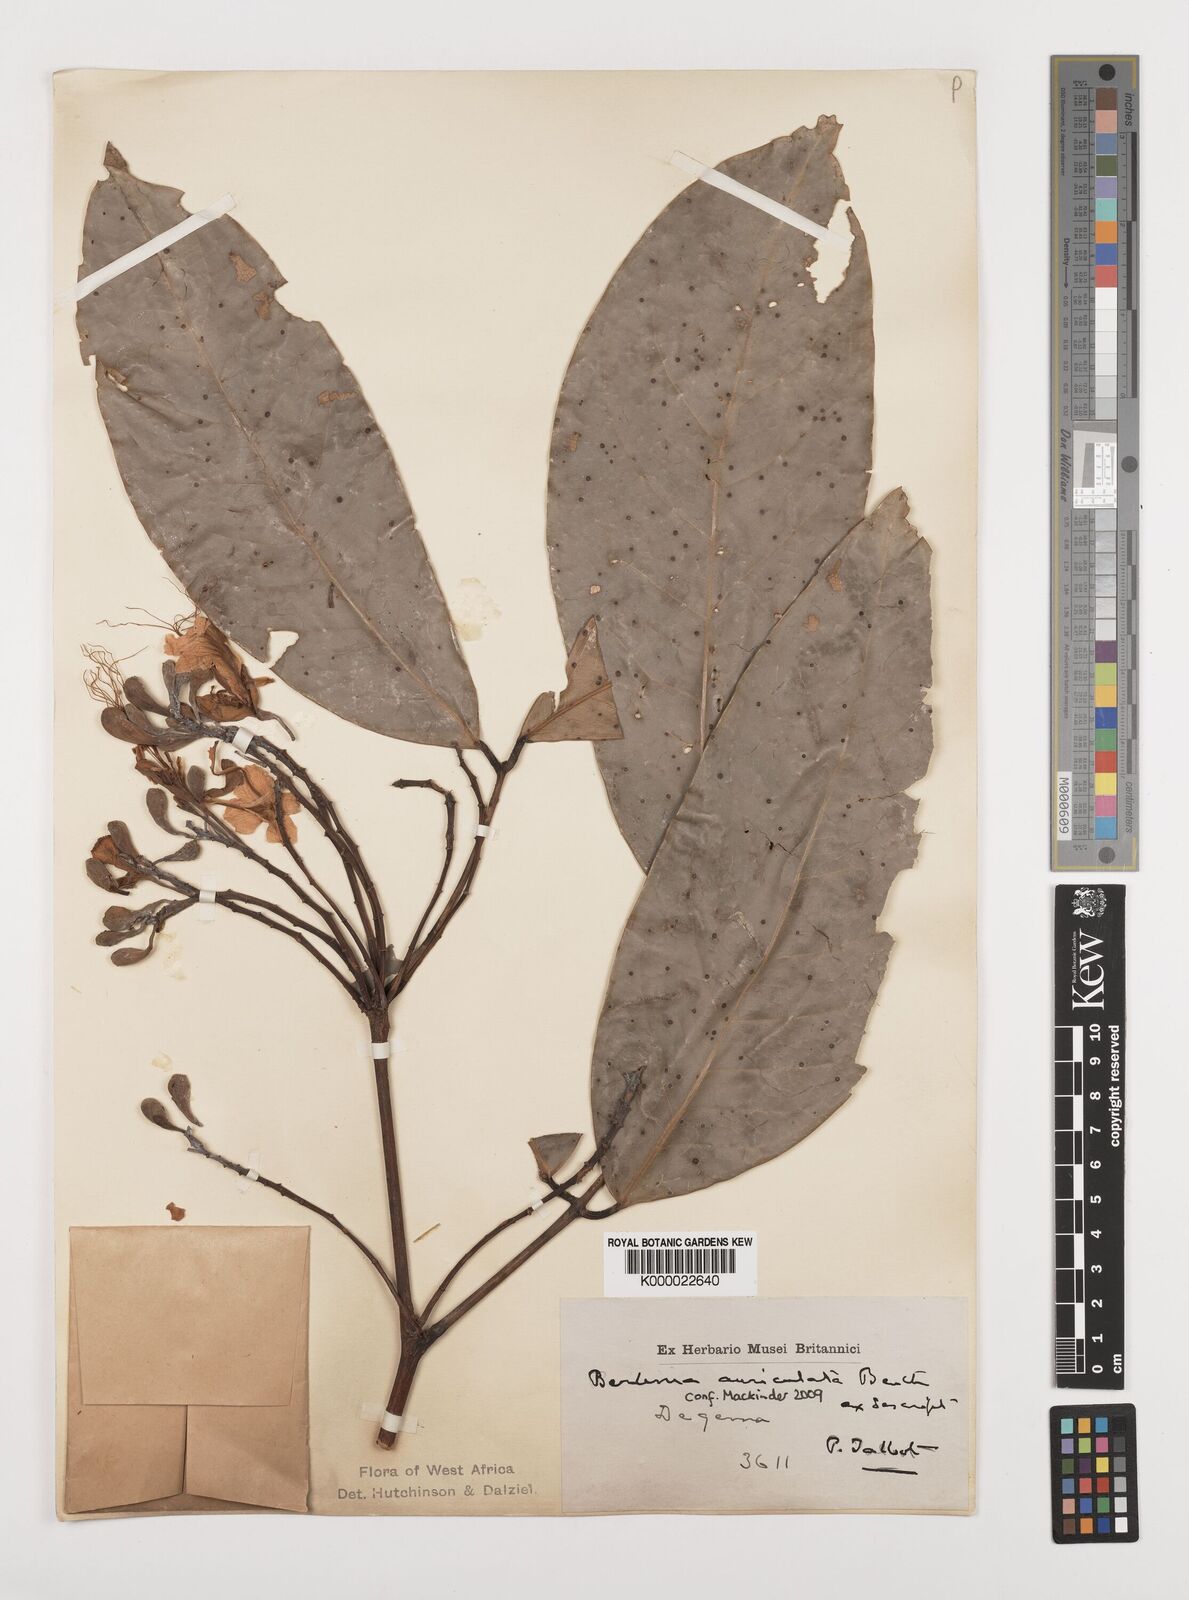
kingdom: Plantae
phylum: Tracheophyta
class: Magnoliopsida
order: Fabales
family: Fabaceae
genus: Berlinia
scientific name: Berlinia auriculata
